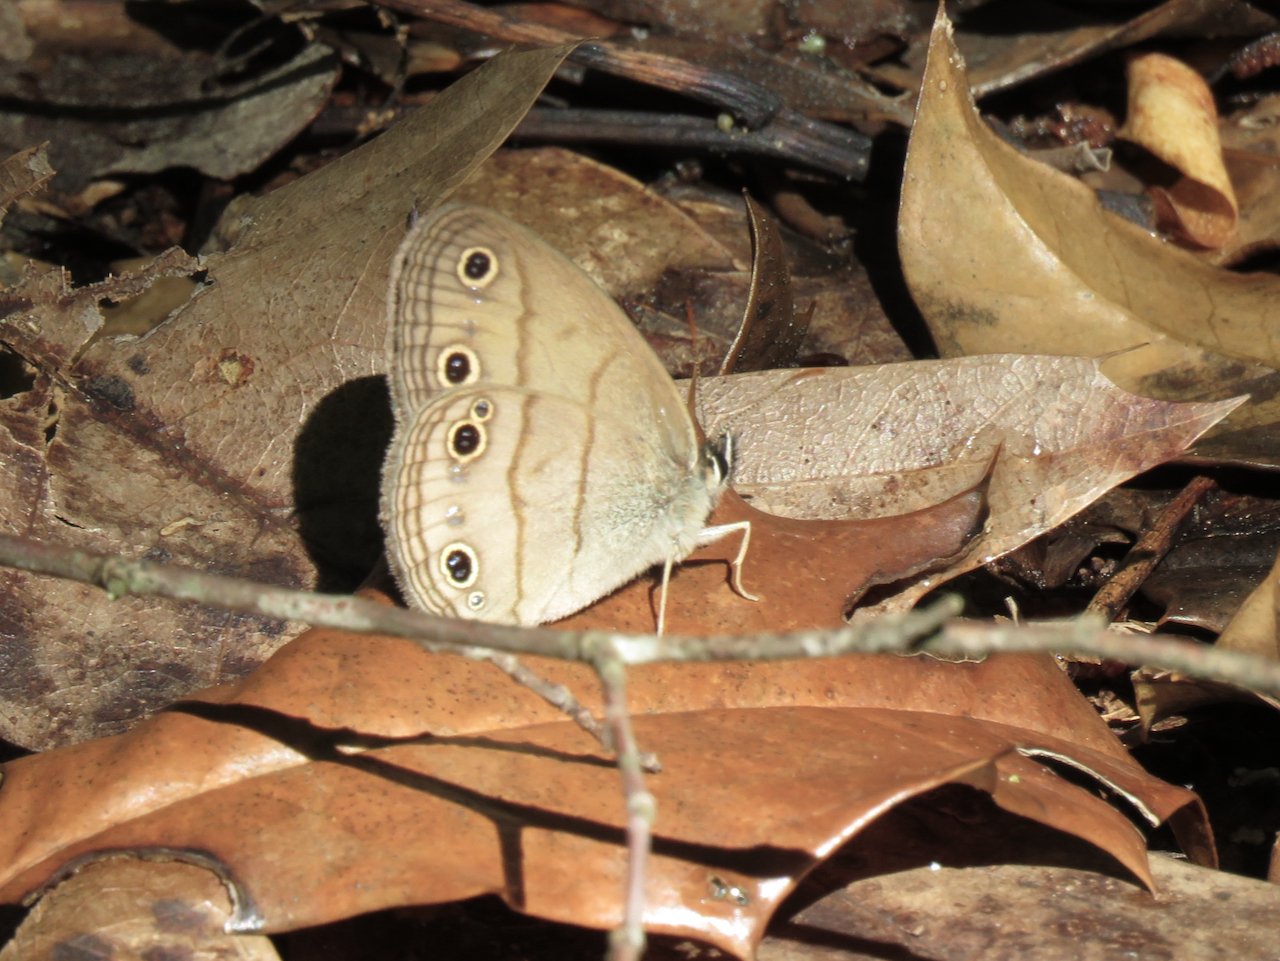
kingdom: Animalia
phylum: Arthropoda
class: Insecta
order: Lepidoptera
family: Nymphalidae
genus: Euptychia
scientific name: Euptychia cymela
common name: Little Wood Satyr
